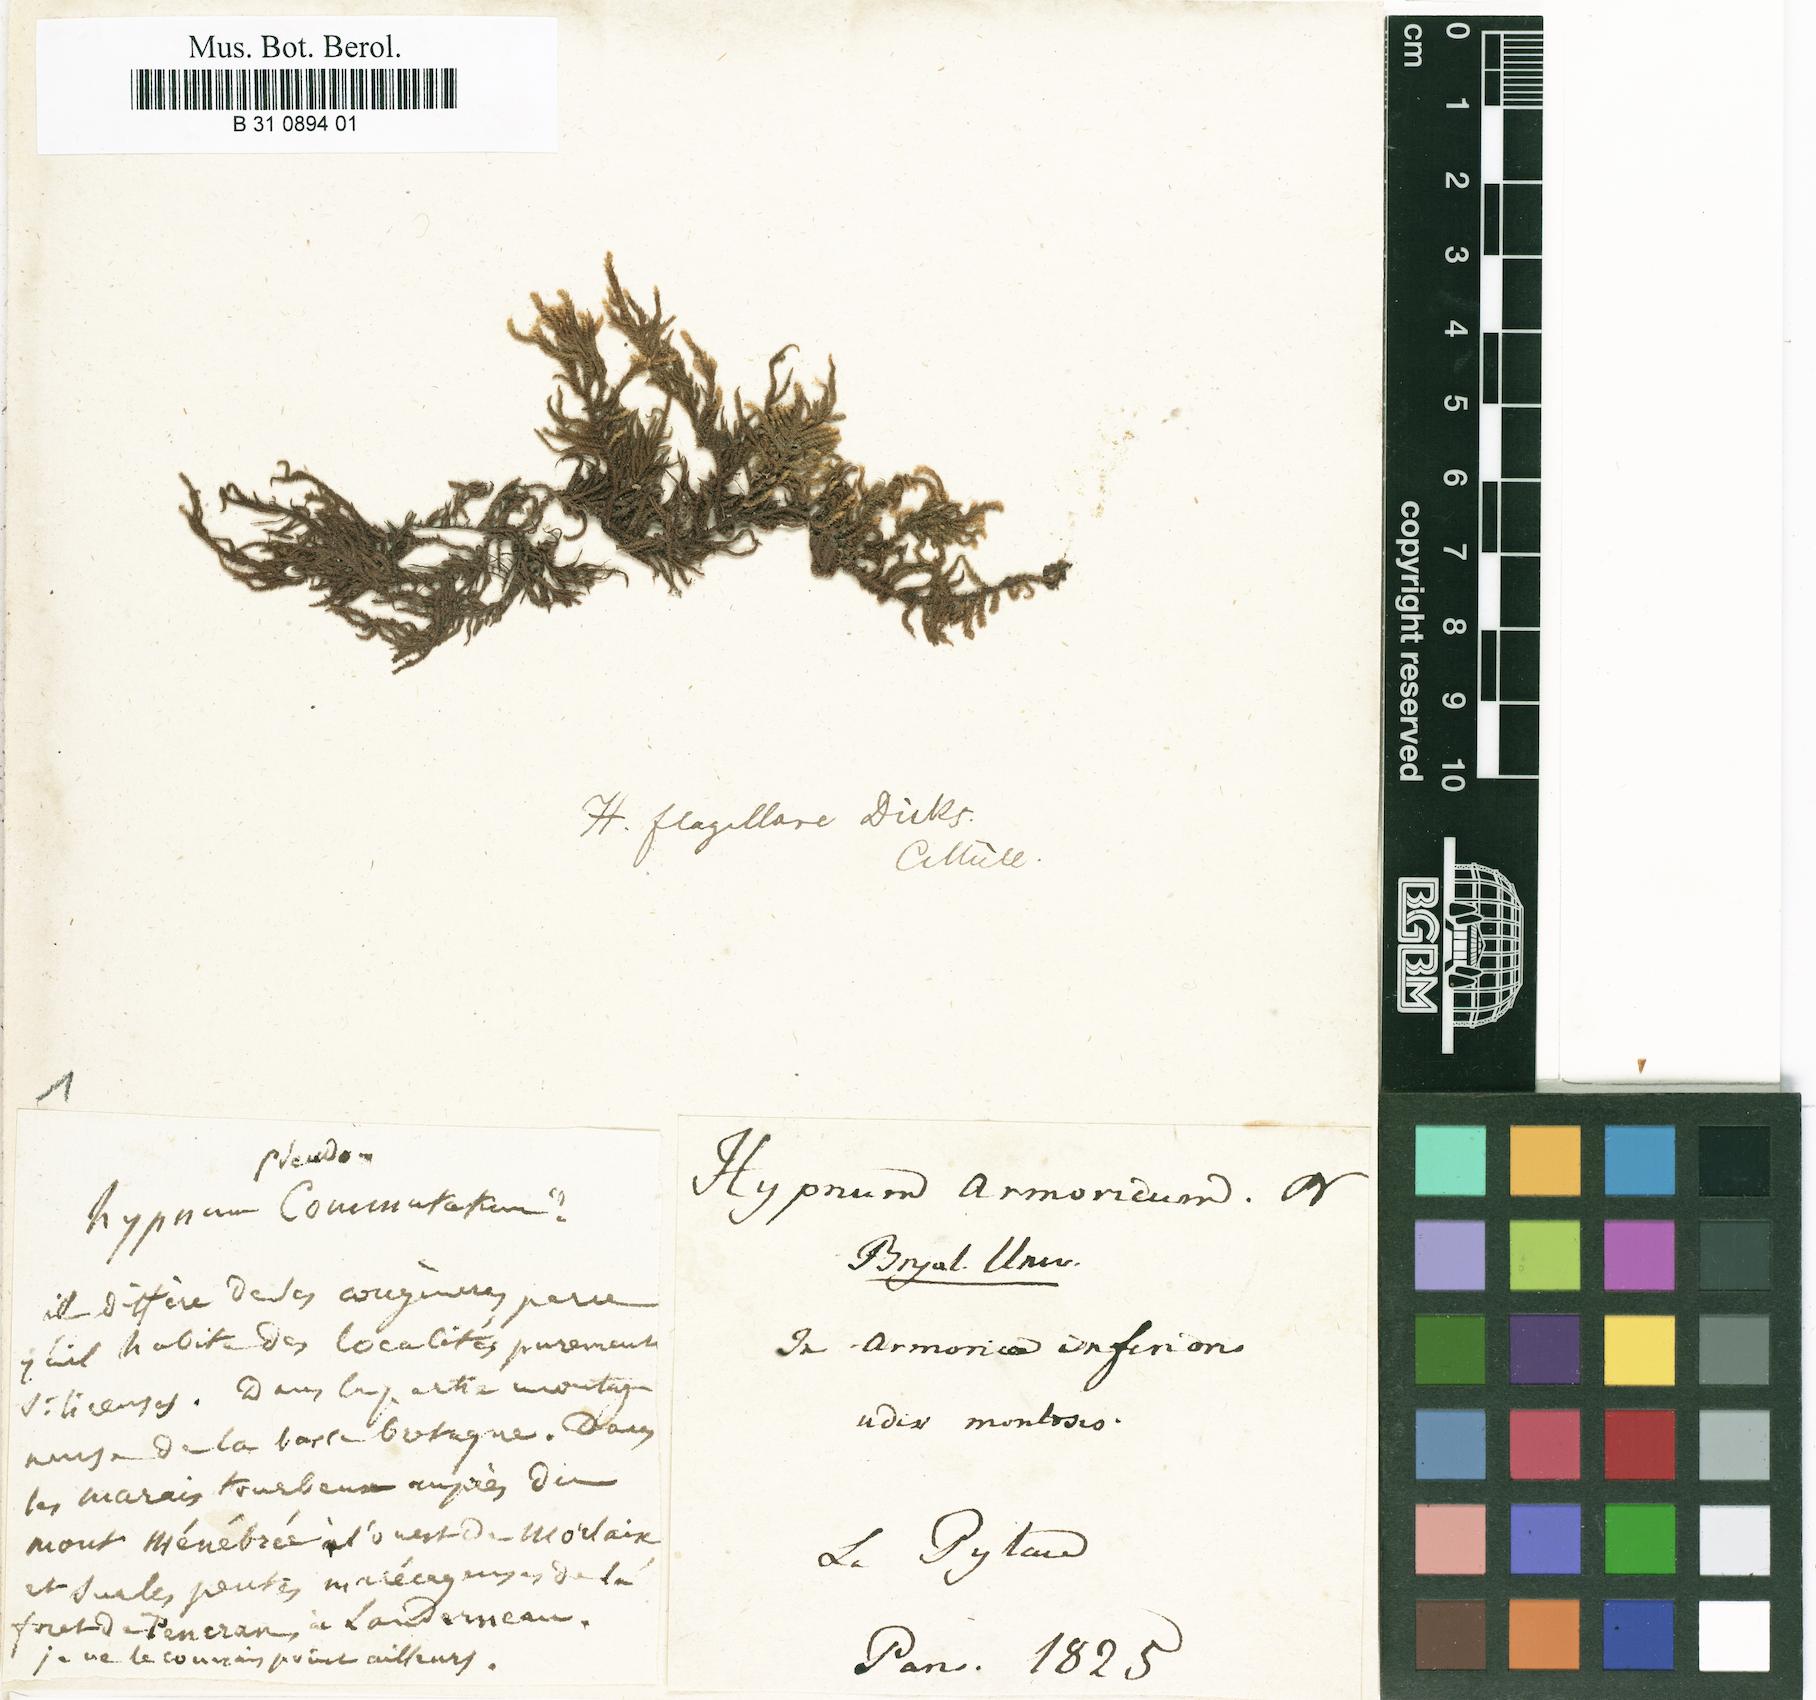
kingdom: Plantae
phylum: Bryophyta
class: Bryopsida
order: Hypnales
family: Myuriaceae
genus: Hyocomium
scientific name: Hyocomium armoricum
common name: Flagellate feather-moss
